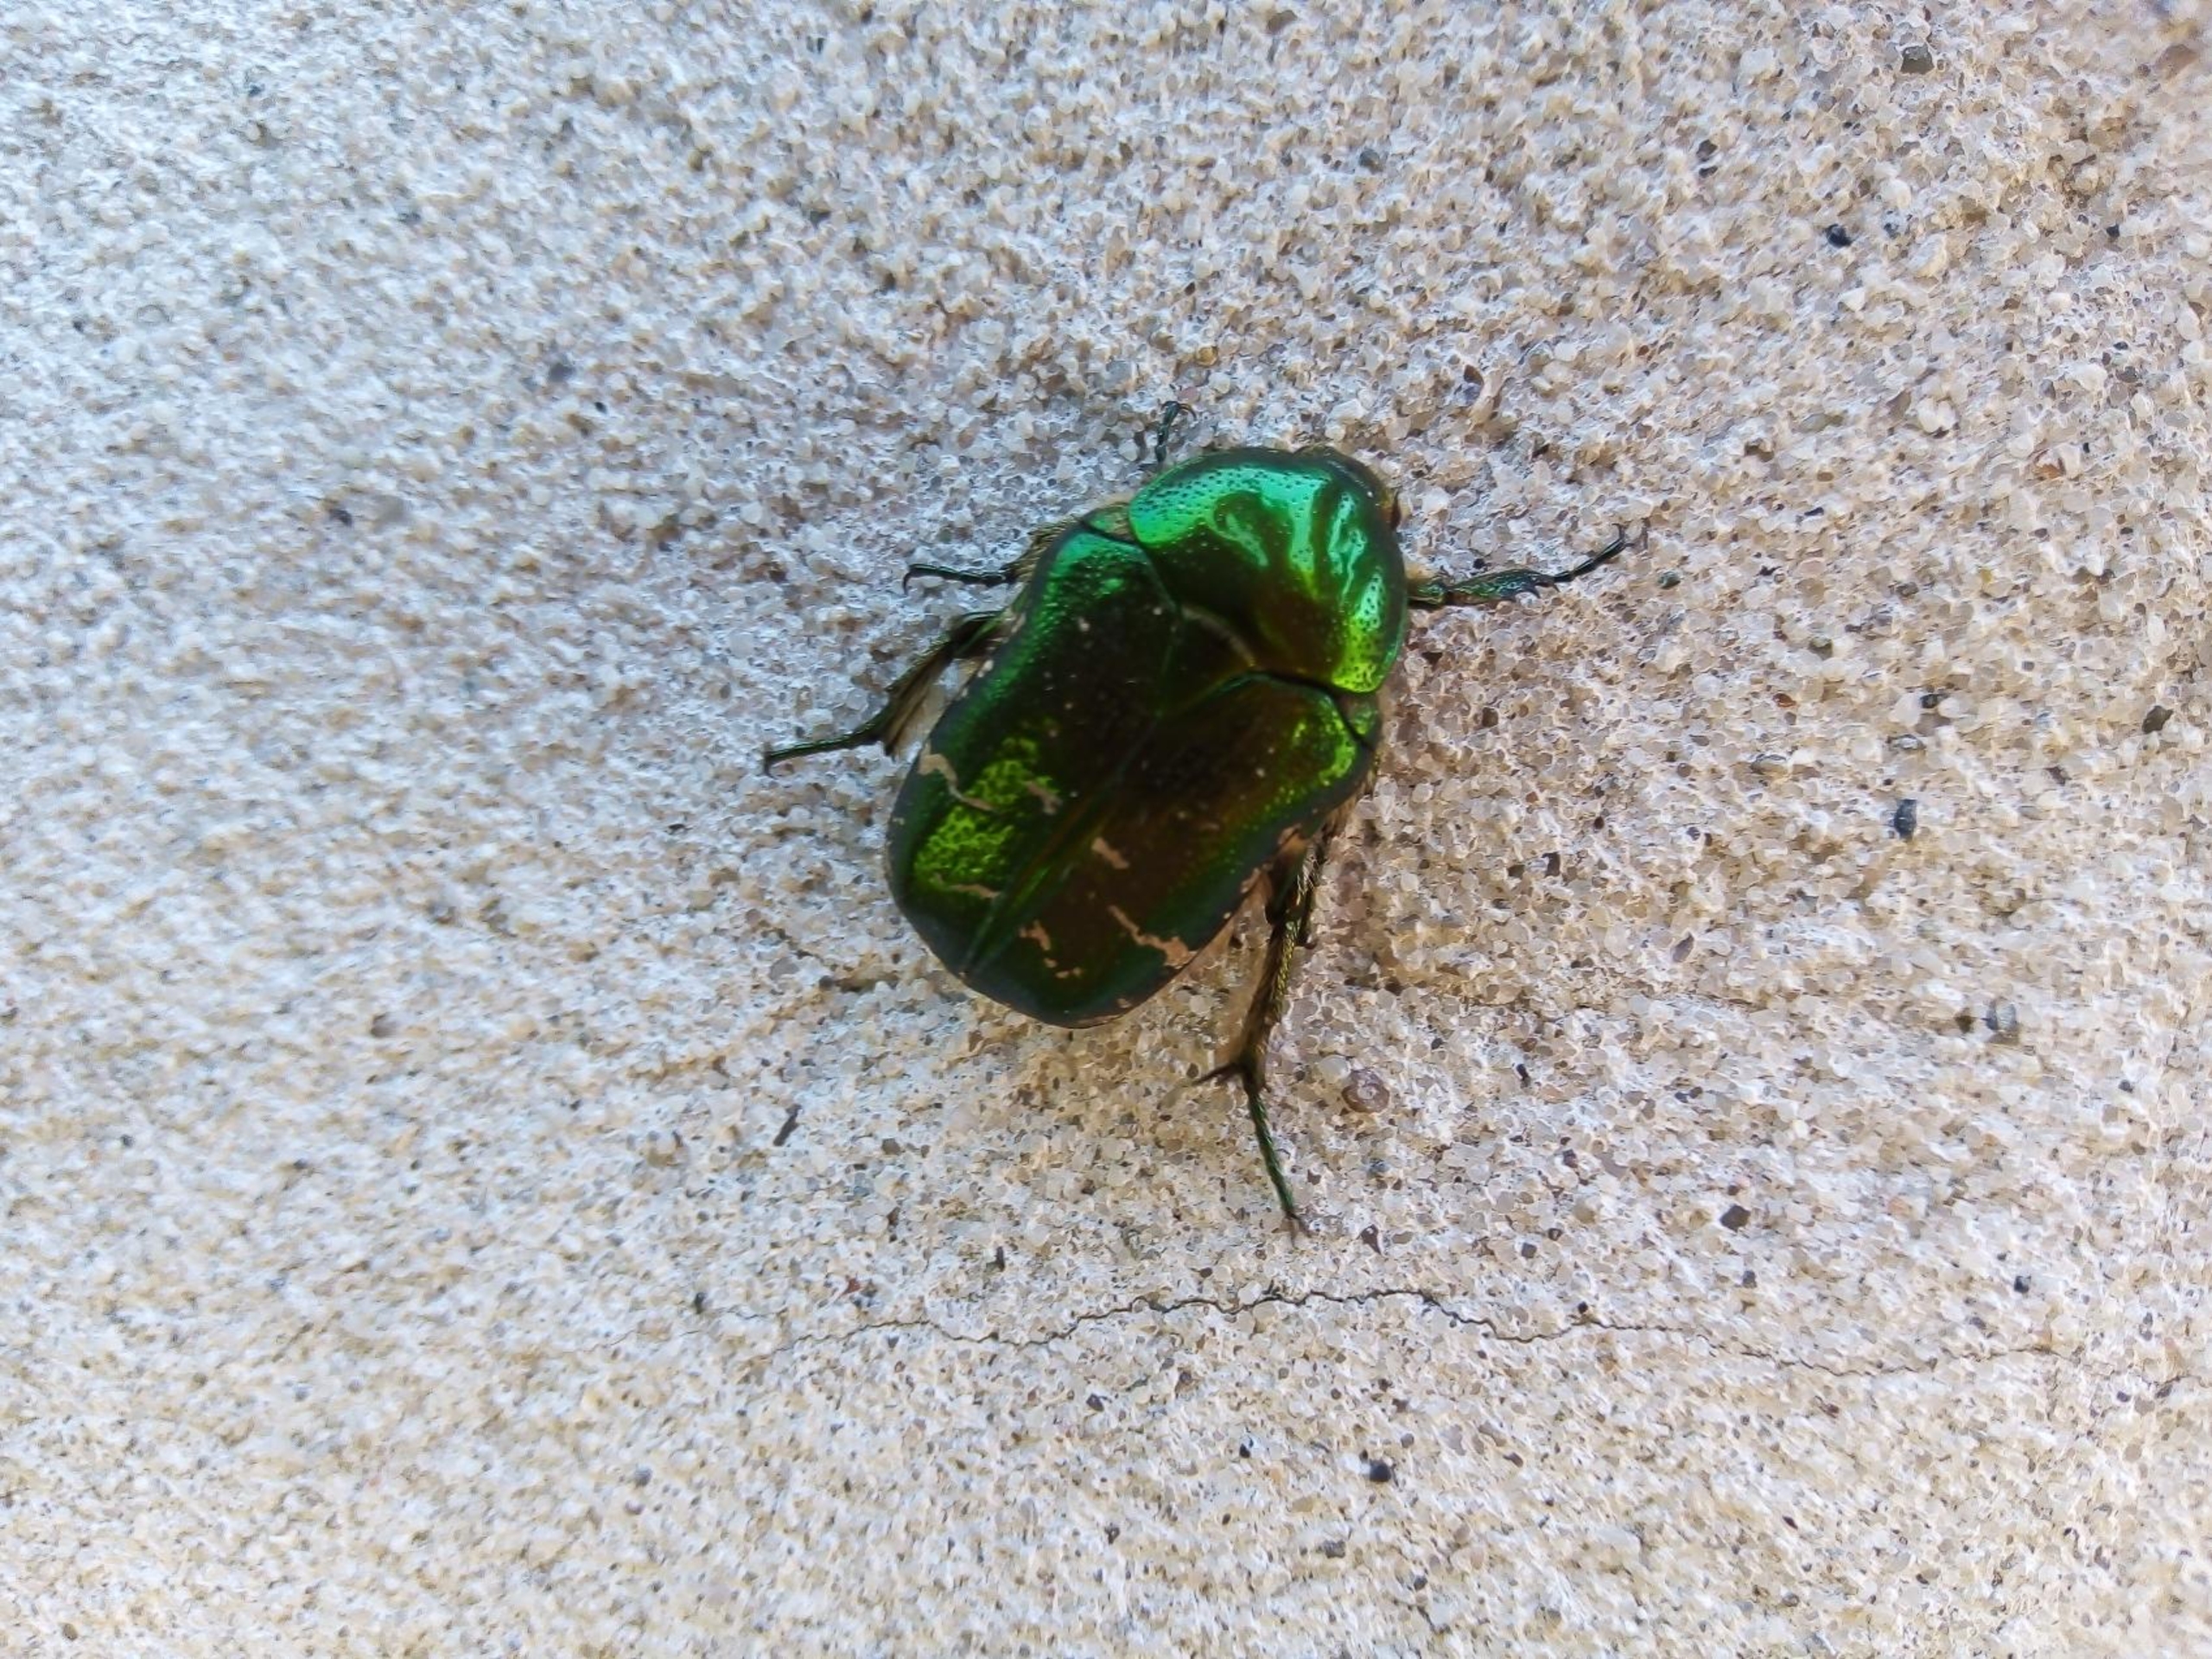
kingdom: Animalia
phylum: Arthropoda
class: Insecta
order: Coleoptera
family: Scarabaeidae
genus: Cetonia
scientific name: Cetonia aurata
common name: Grøn guldbasse
